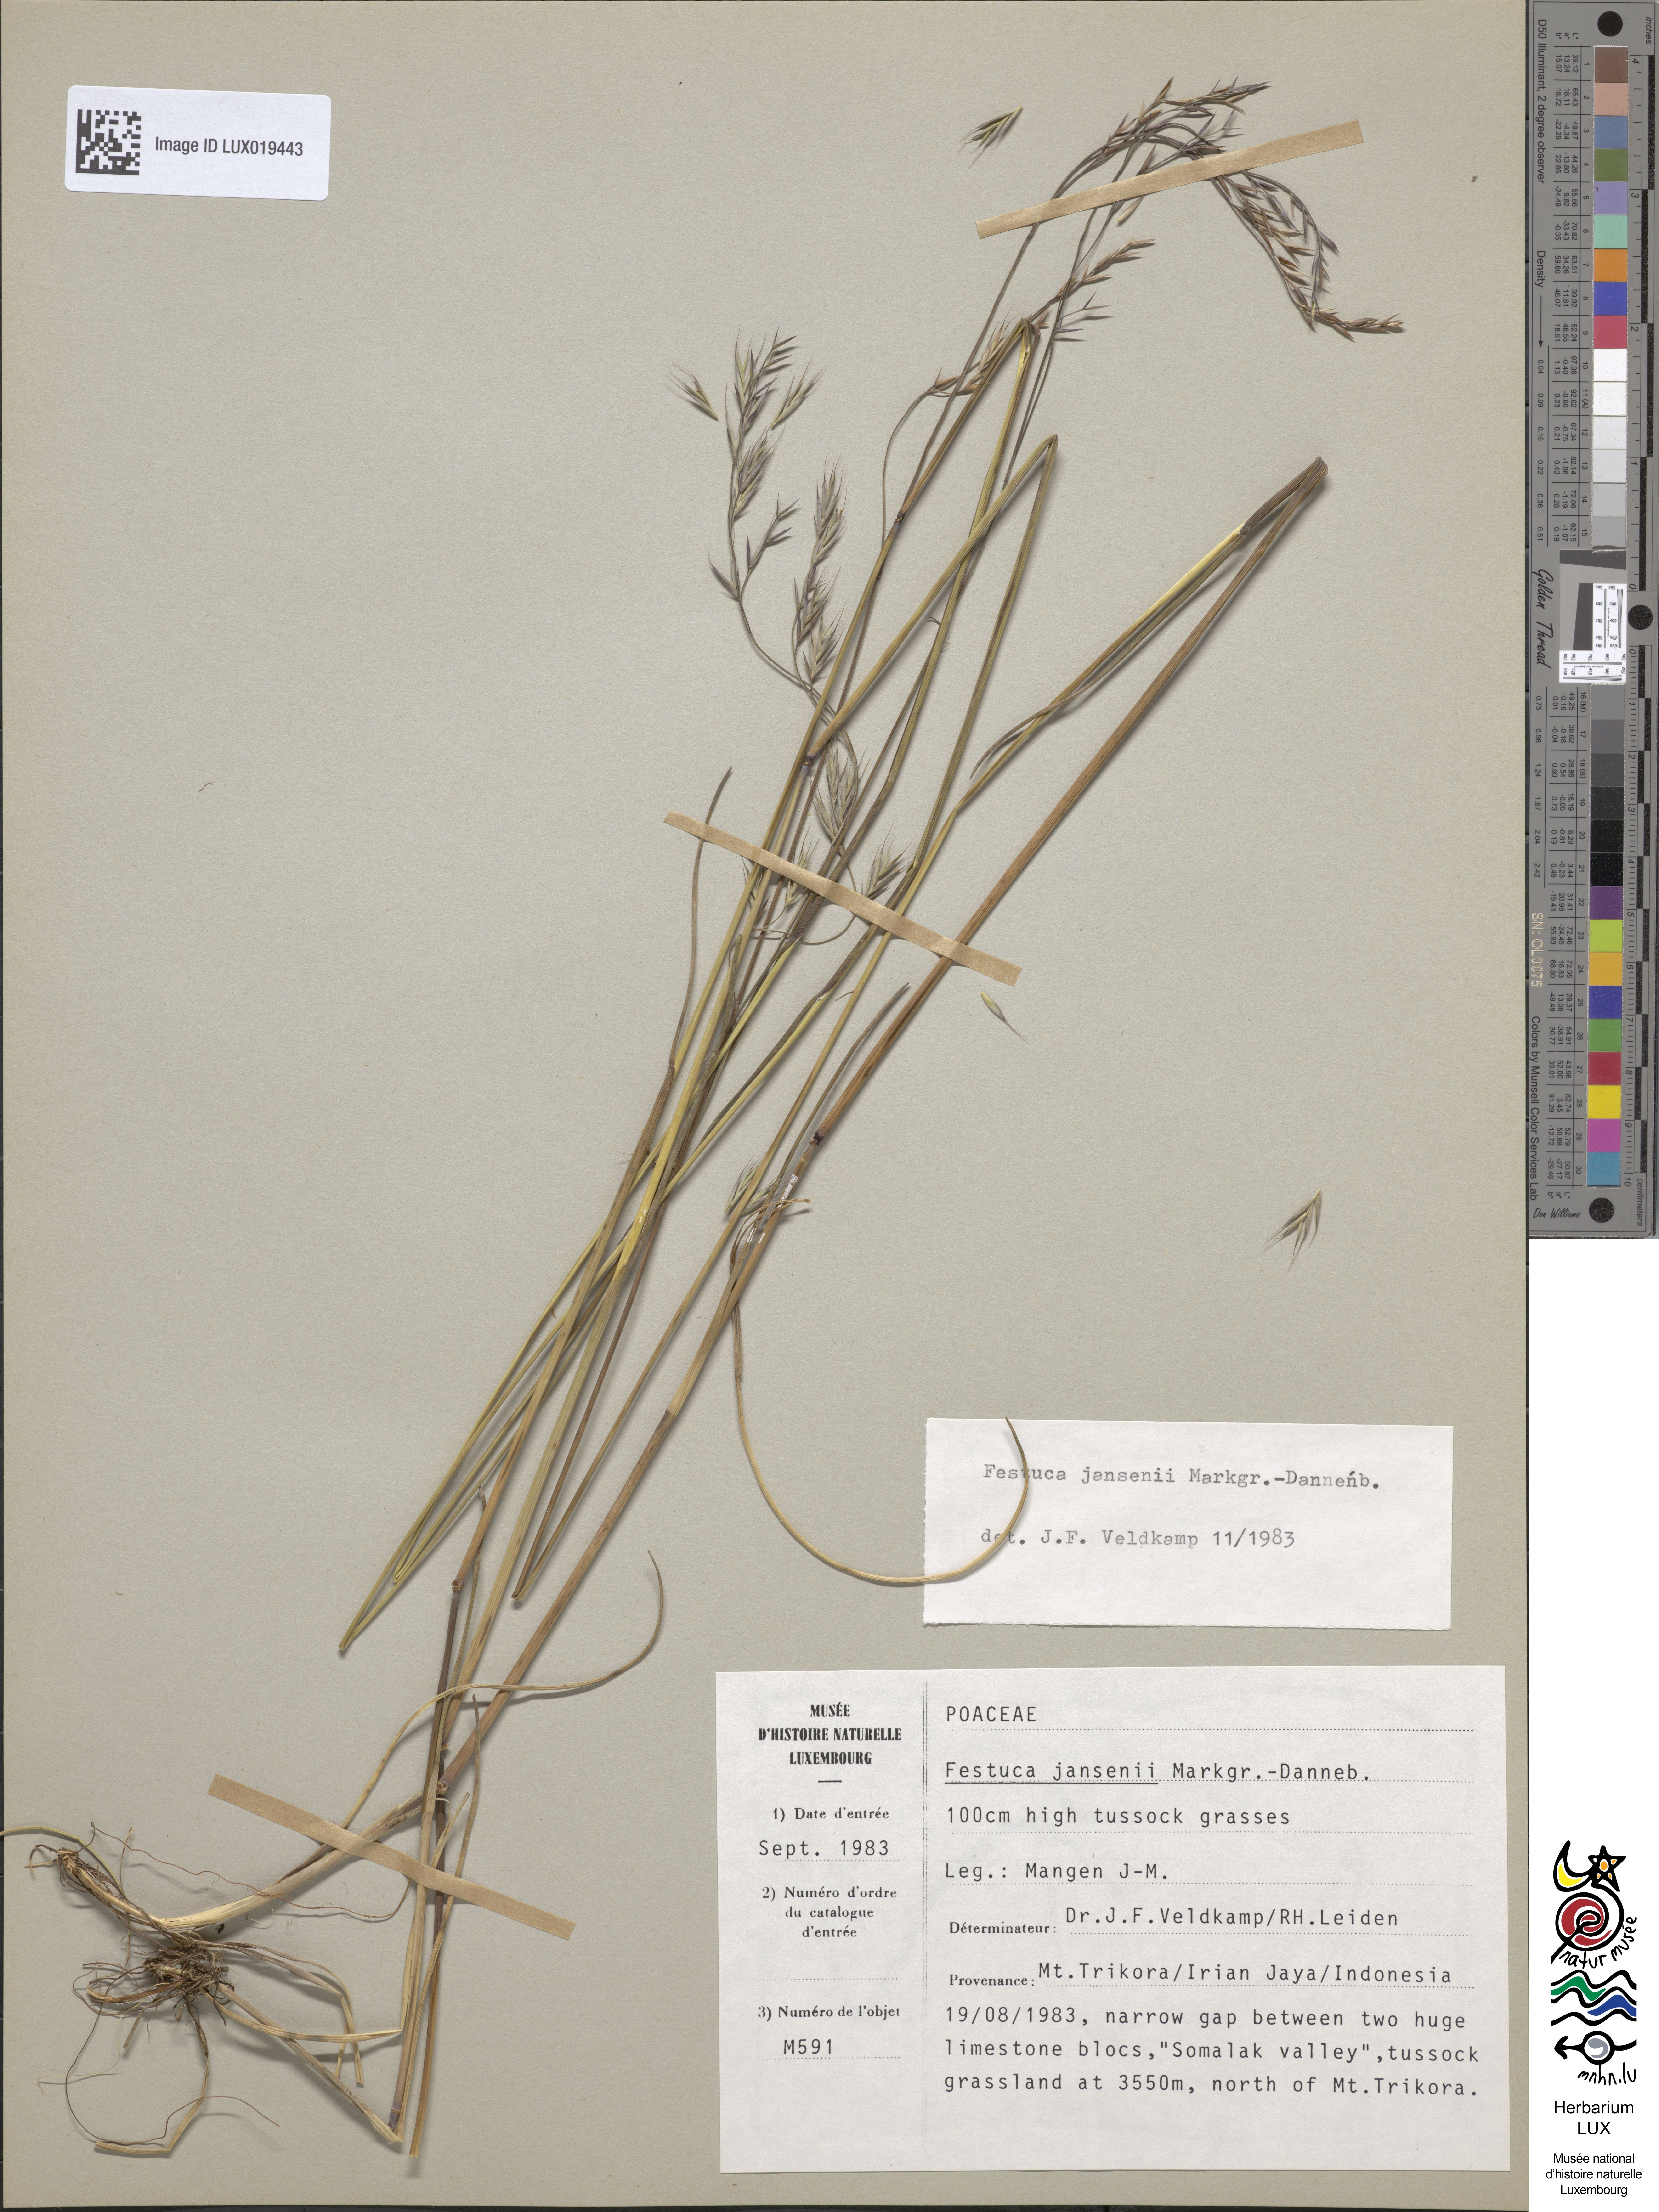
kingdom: Plantae
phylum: Tracheophyta
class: Liliopsida
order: Poales
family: Poaceae
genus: Festuca
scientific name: Festuca jansenii
